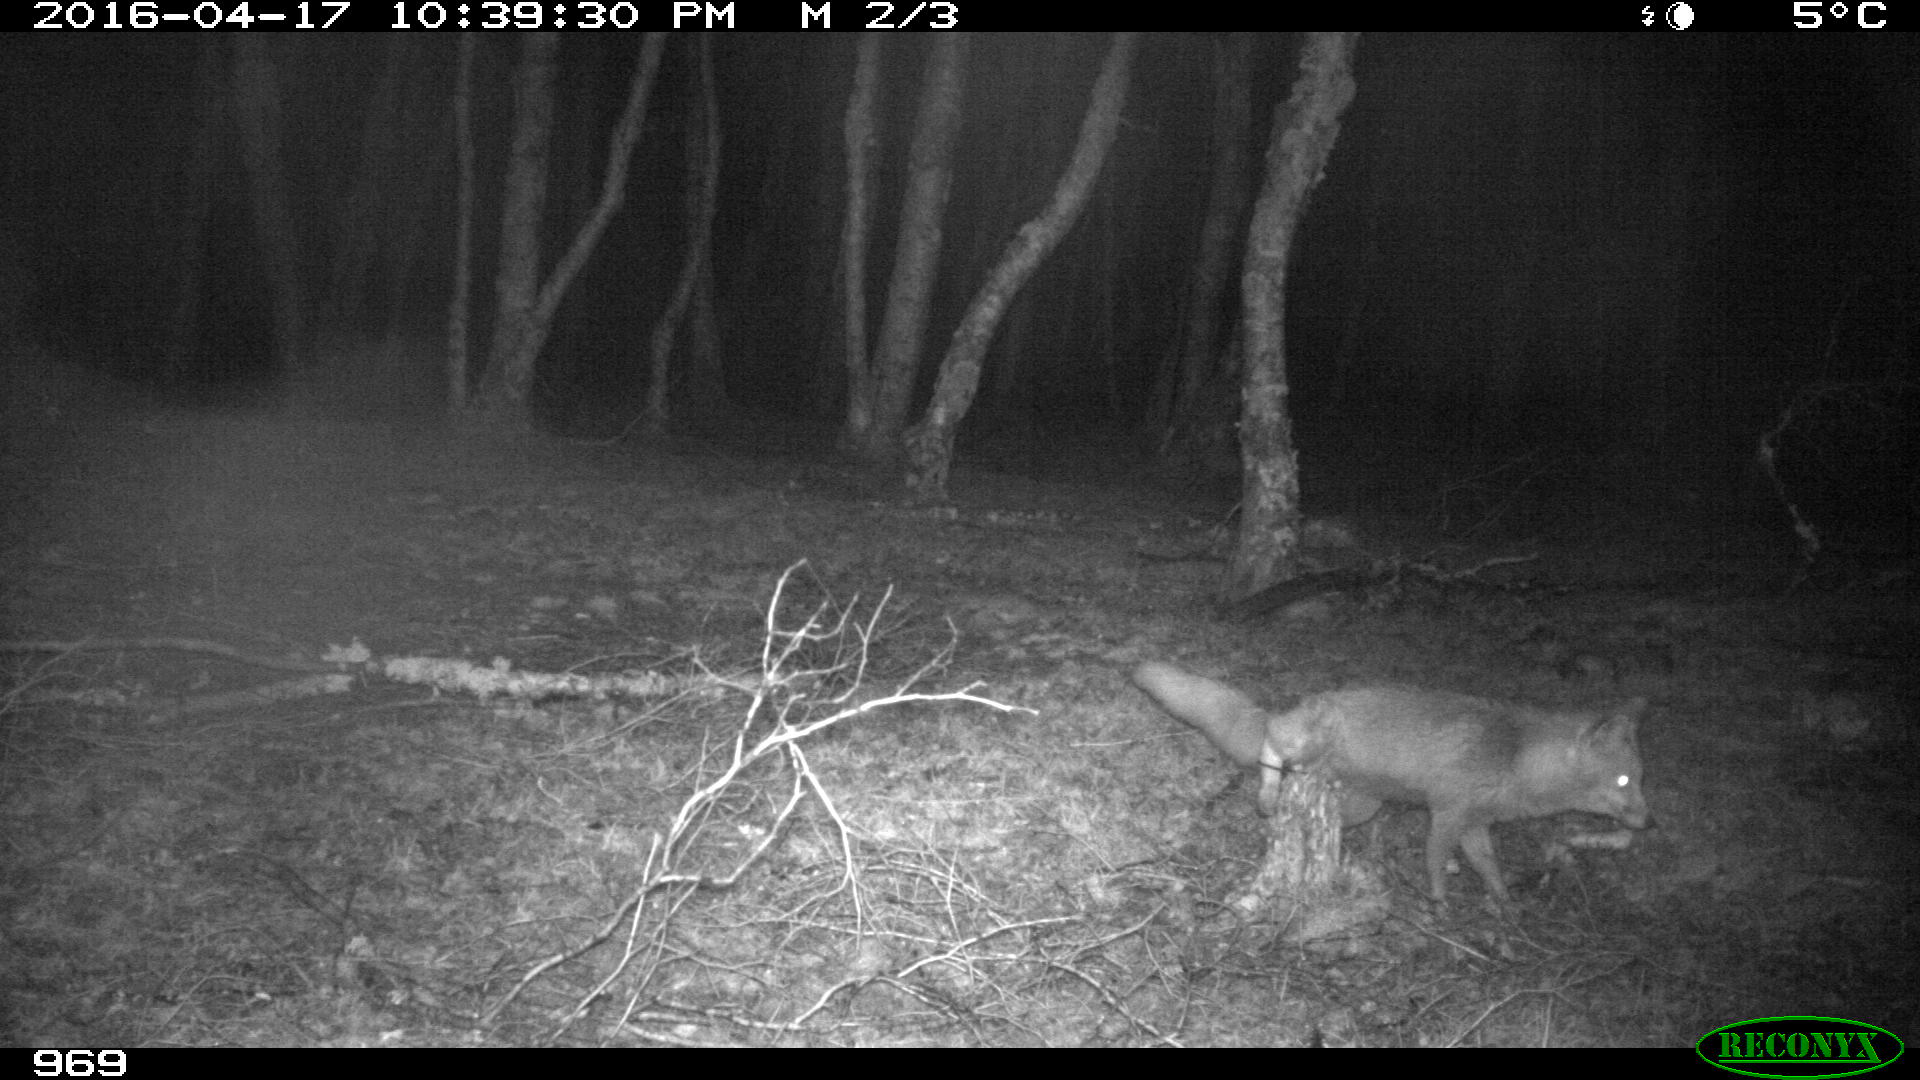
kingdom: Animalia
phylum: Chordata
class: Mammalia
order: Carnivora
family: Canidae
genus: Vulpes
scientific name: Vulpes vulpes
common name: Red fox
